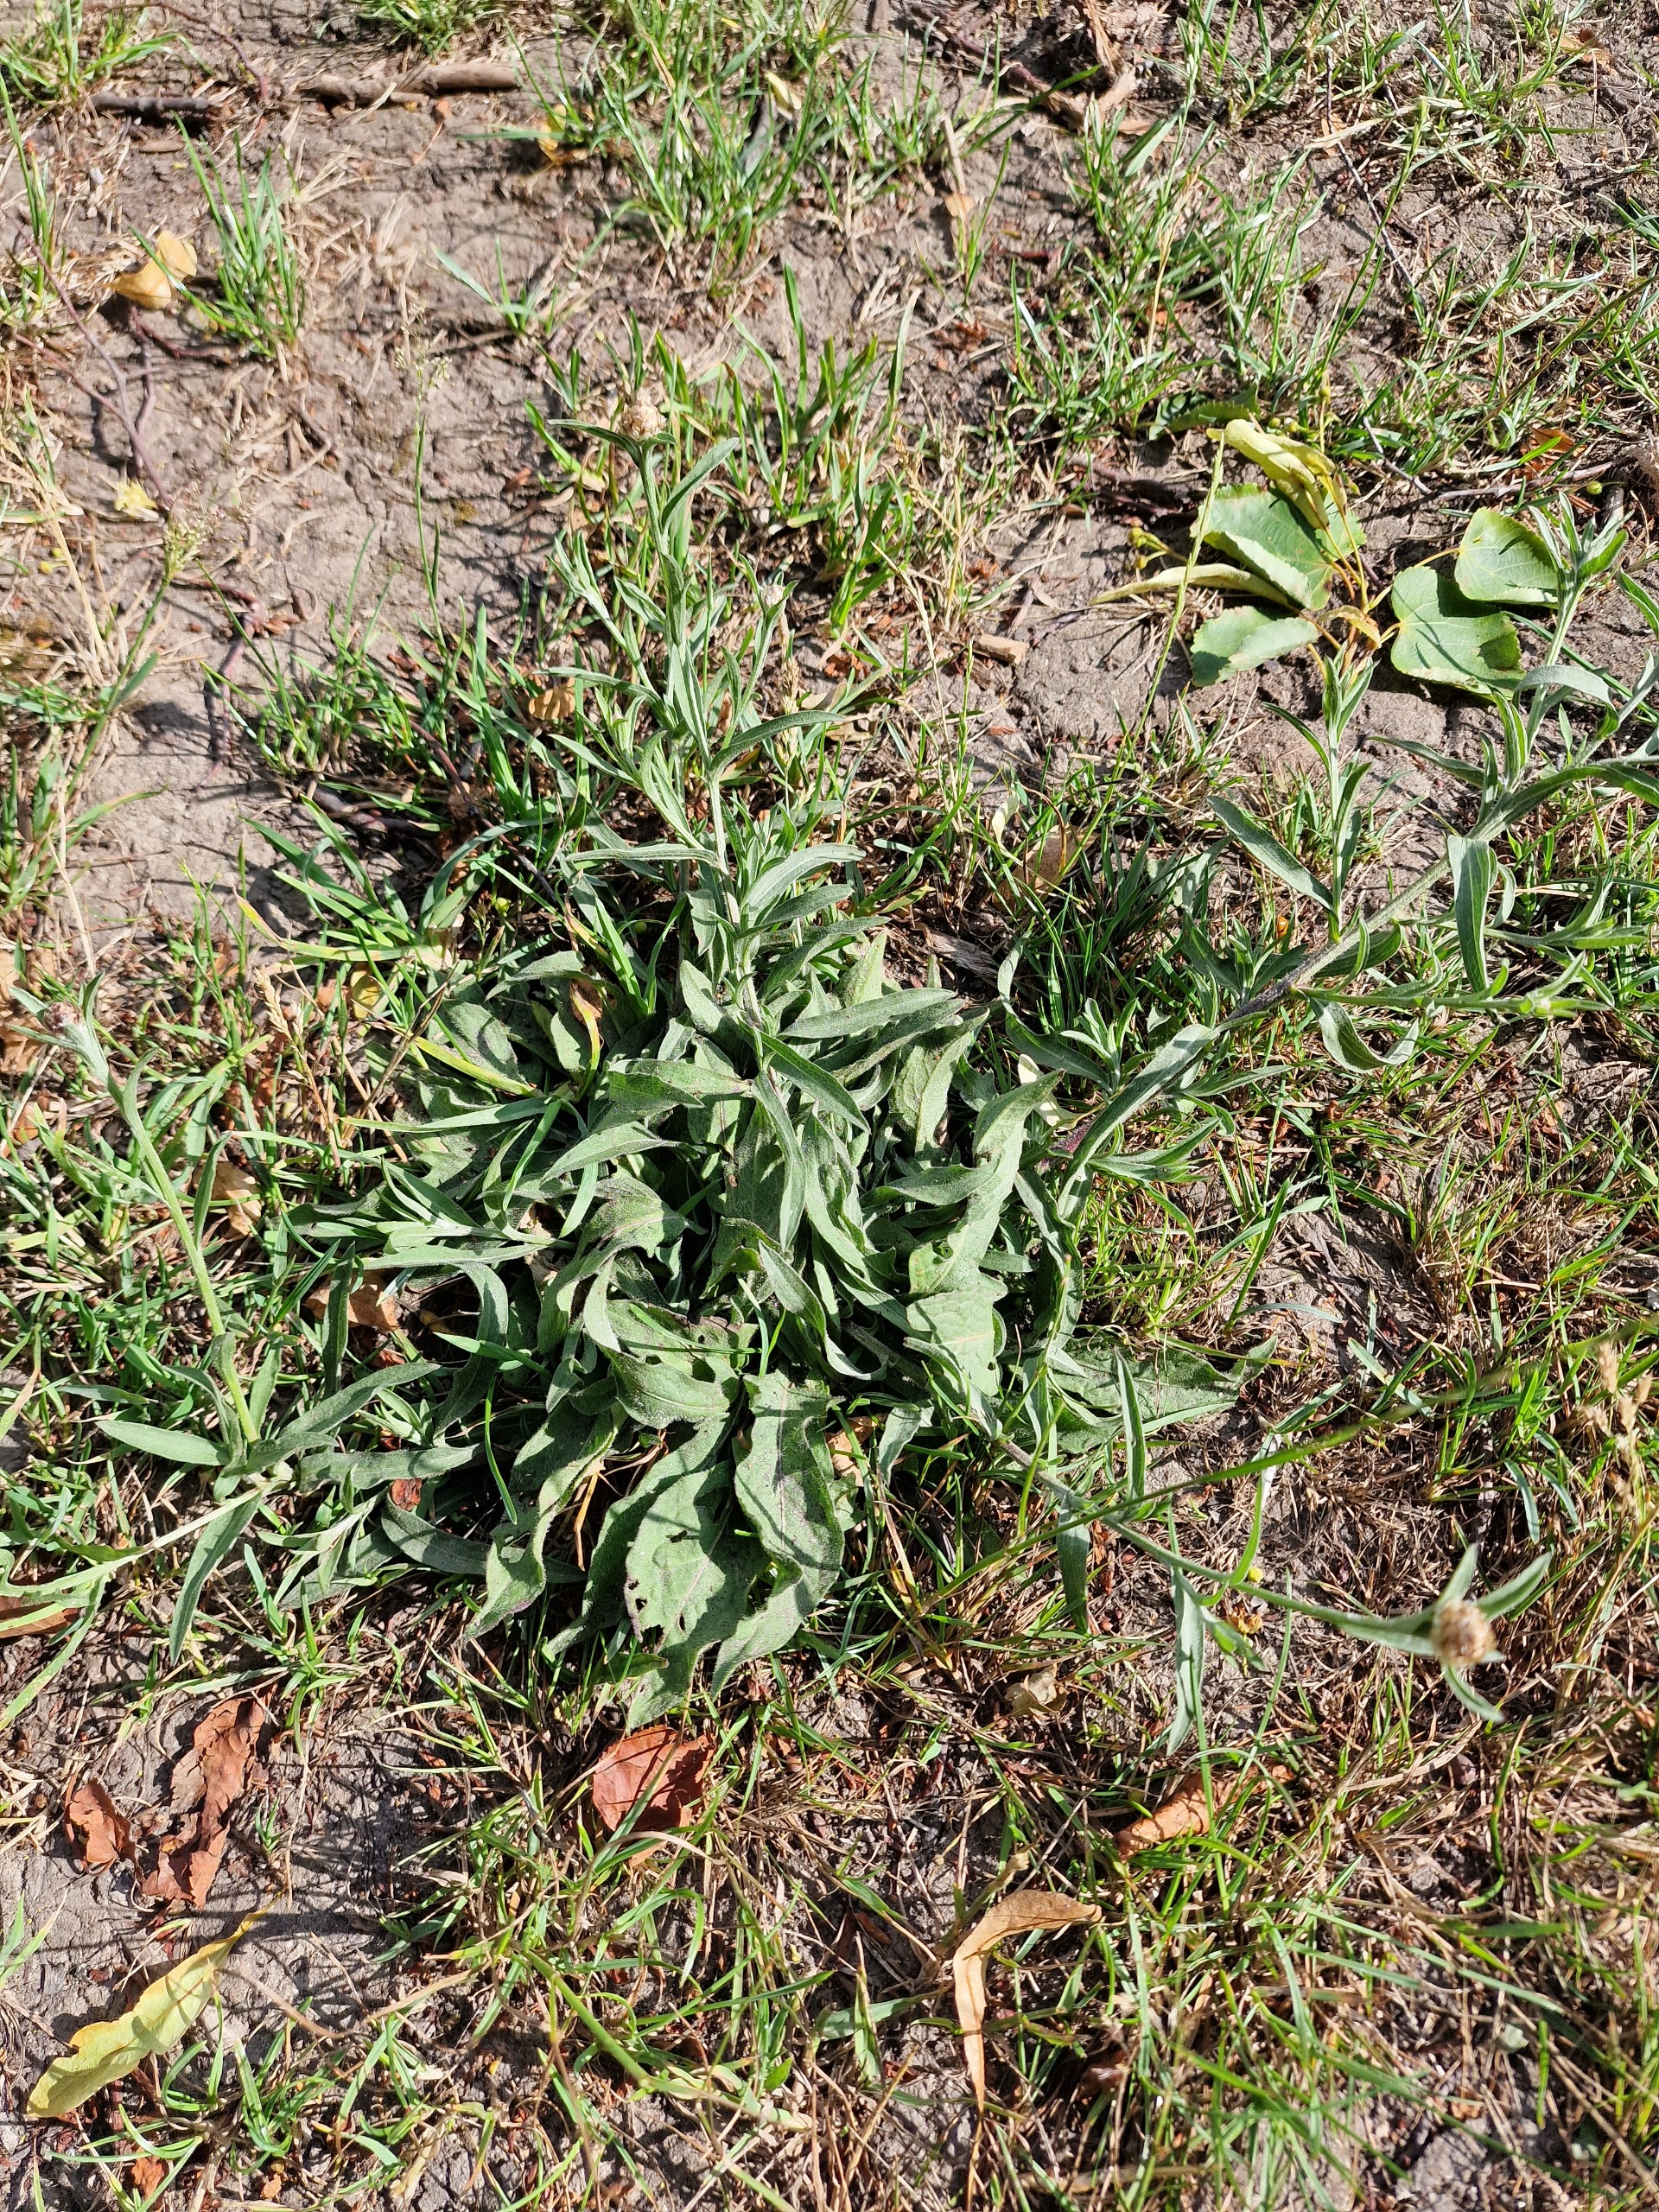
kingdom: Plantae
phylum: Tracheophyta
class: Magnoliopsida
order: Asterales
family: Asteraceae
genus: Centaurea
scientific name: Centaurea jacea
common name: Almindelig knopurt
